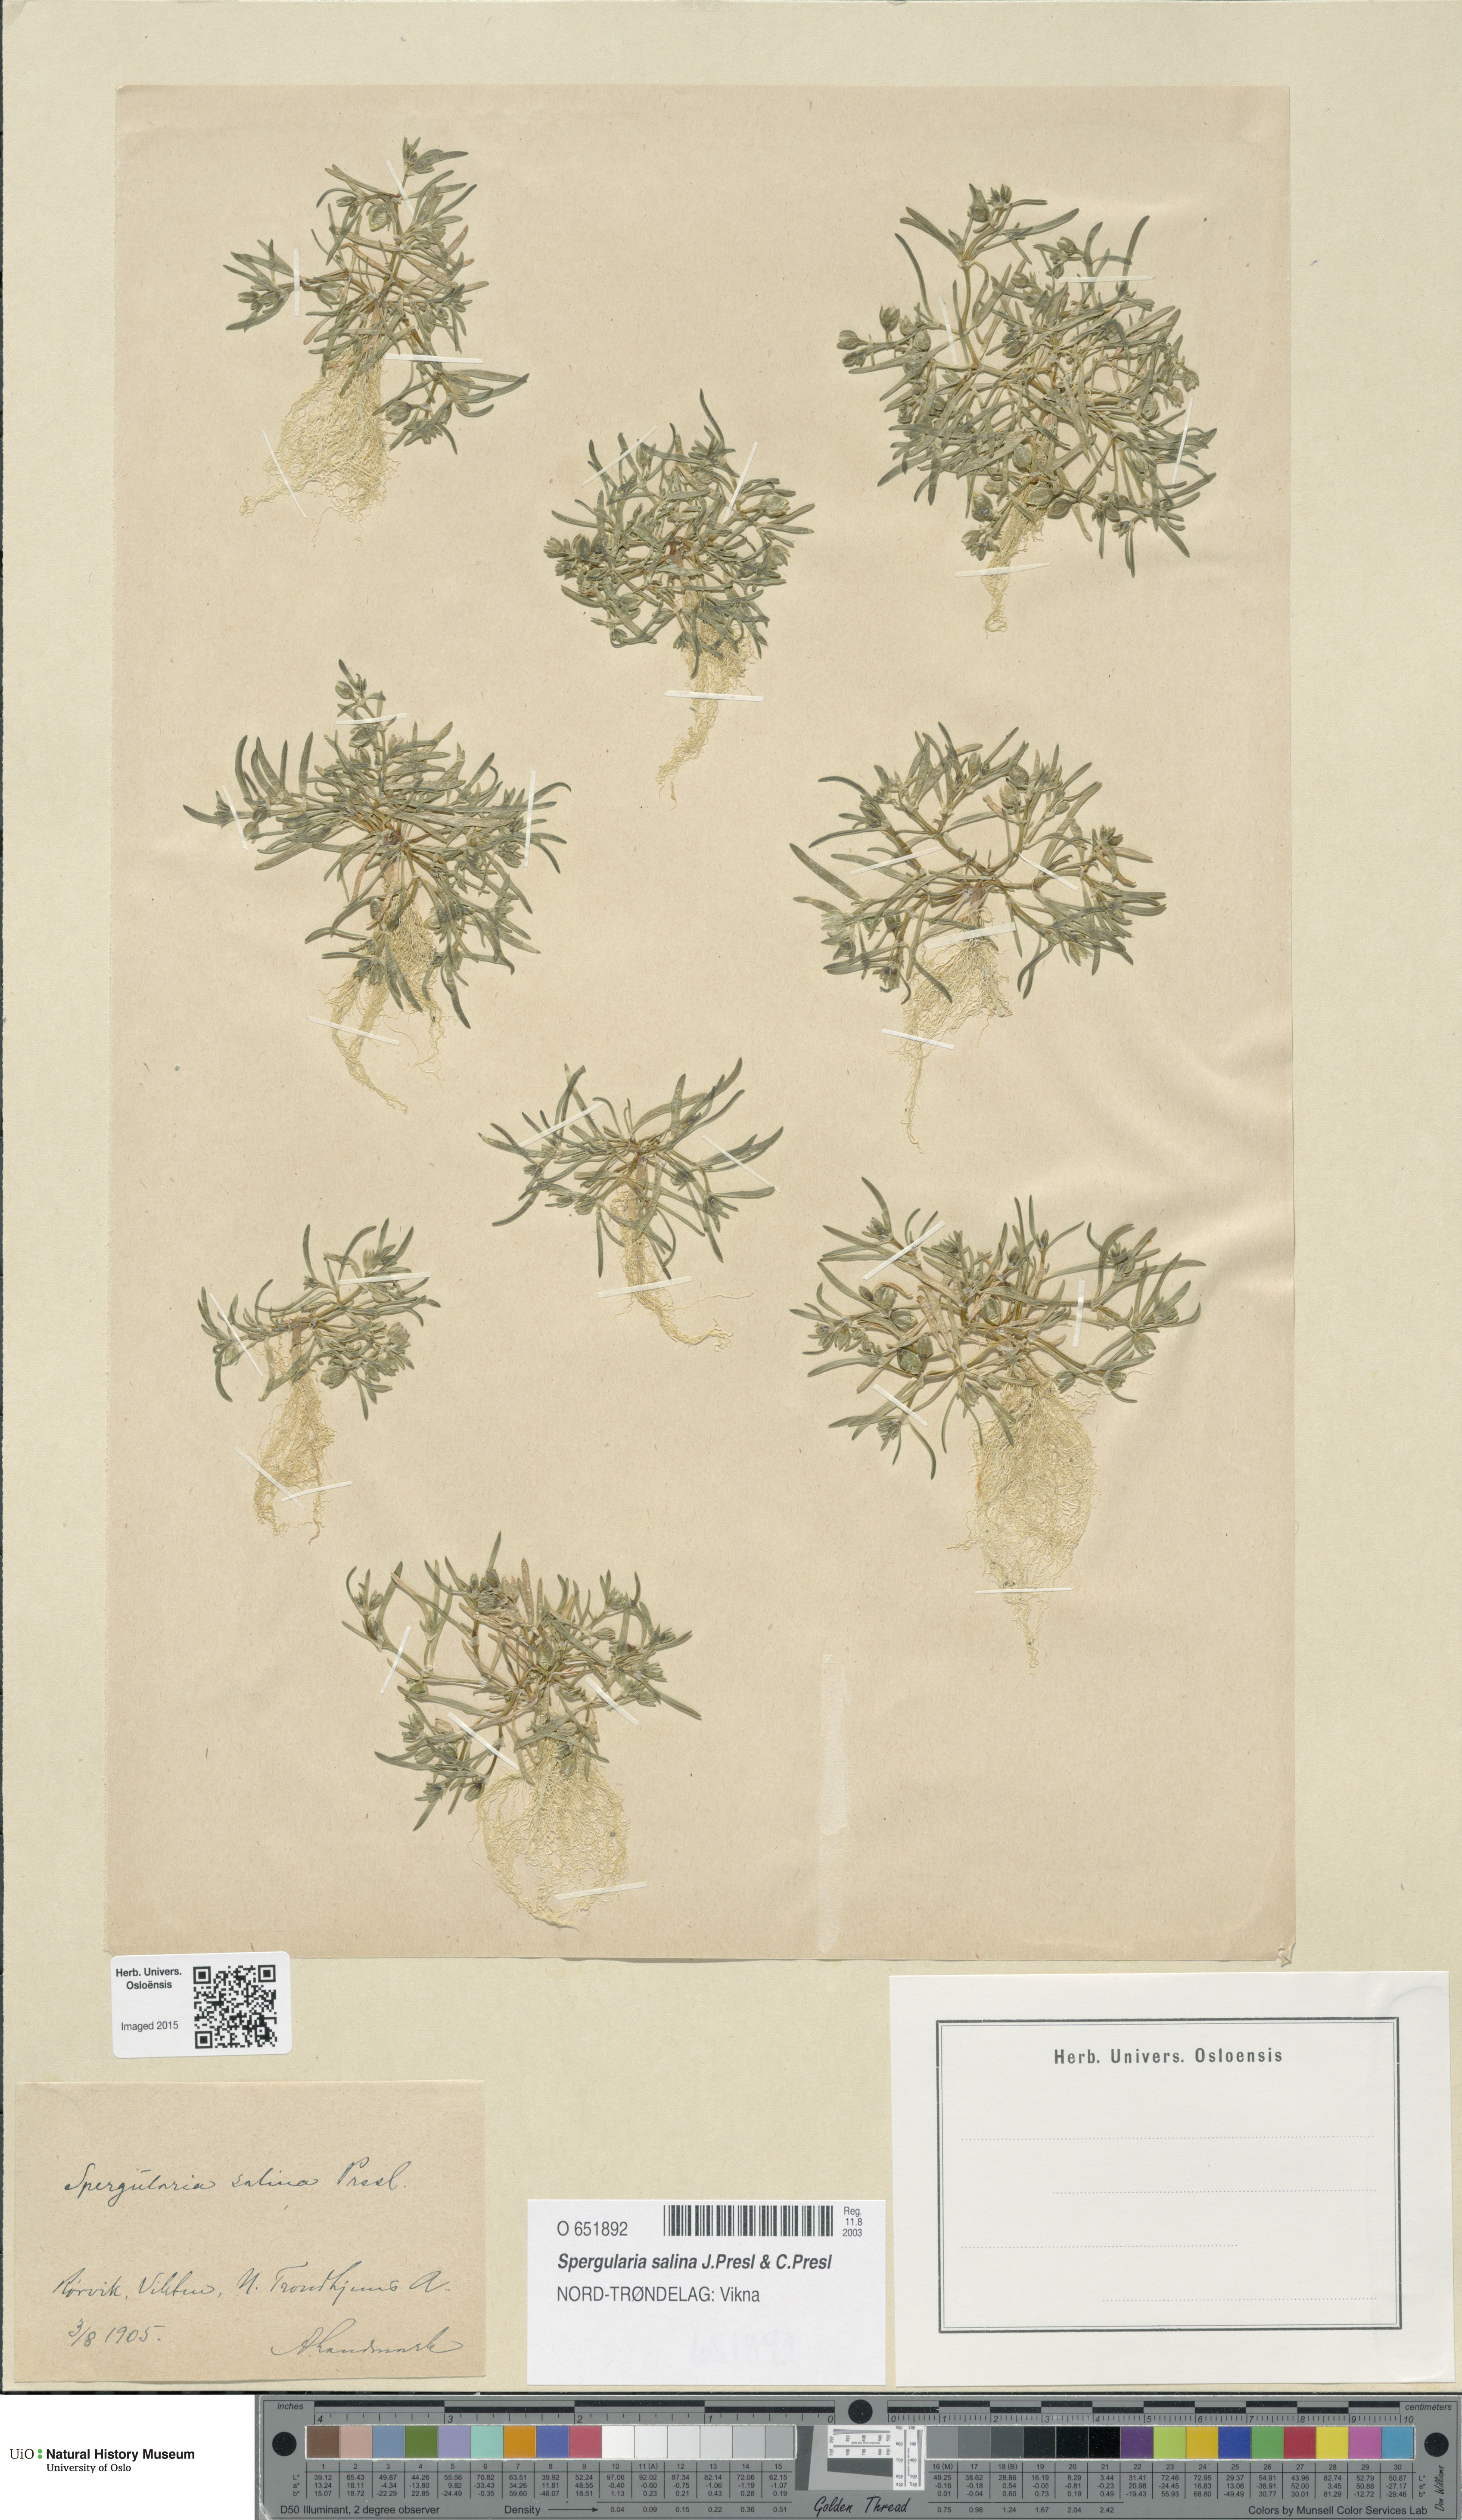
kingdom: Plantae
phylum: Tracheophyta
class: Magnoliopsida
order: Caryophyllales
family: Caryophyllaceae
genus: Spergularia
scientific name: Spergularia marina
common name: Lesser sea-spurrey
